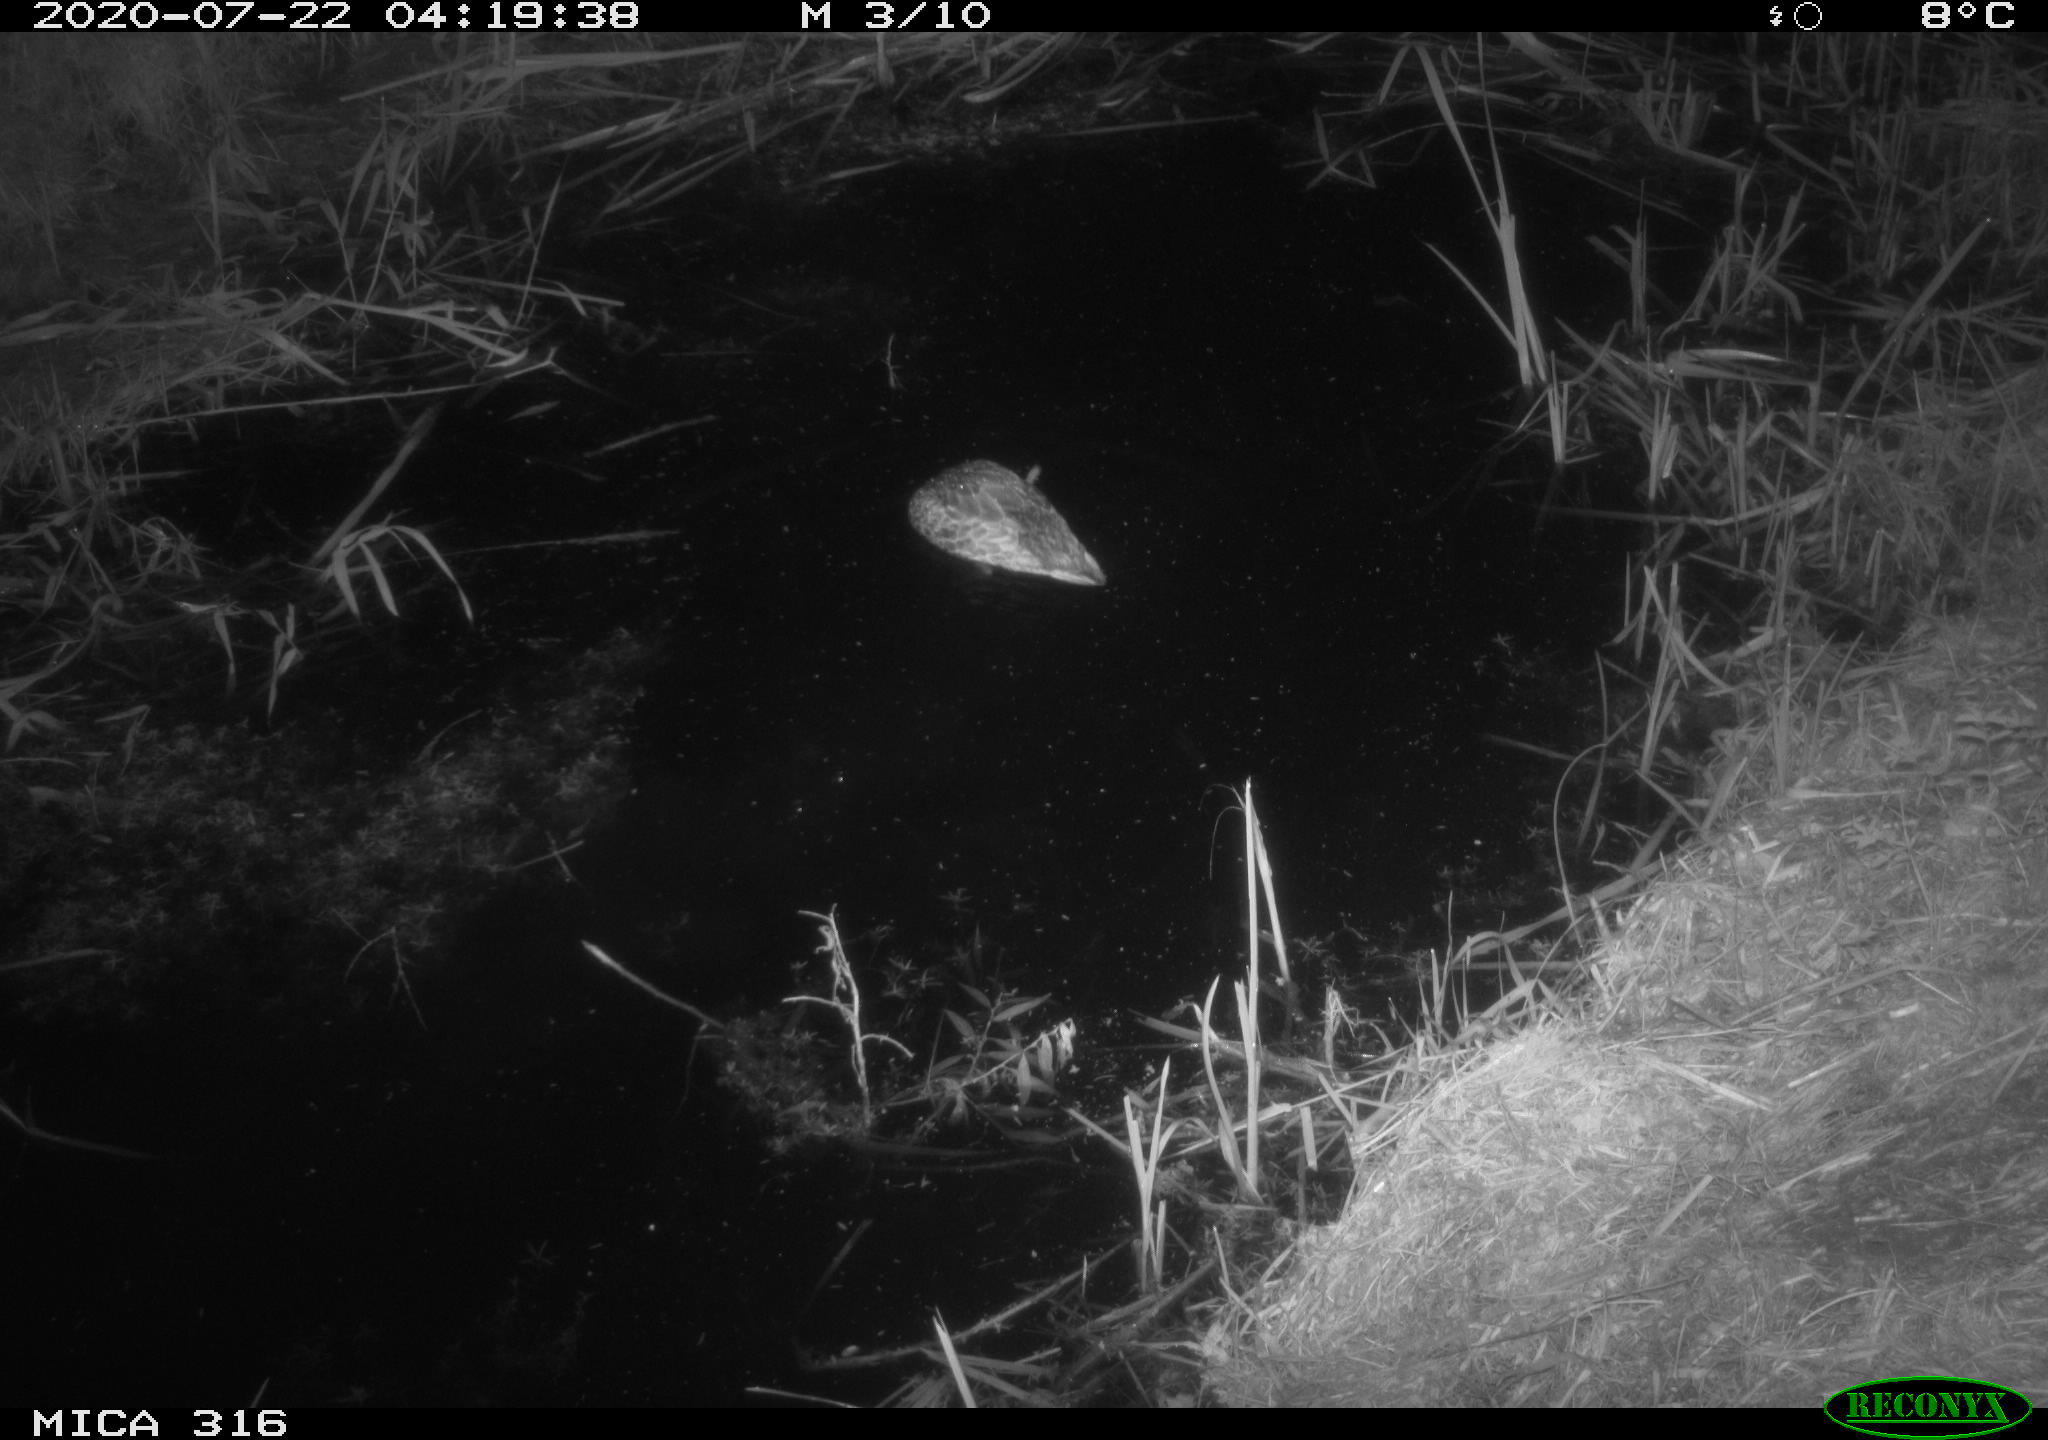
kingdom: Animalia
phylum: Chordata
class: Aves
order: Anseriformes
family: Anatidae
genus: Anas
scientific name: Anas platyrhynchos
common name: Mallard
